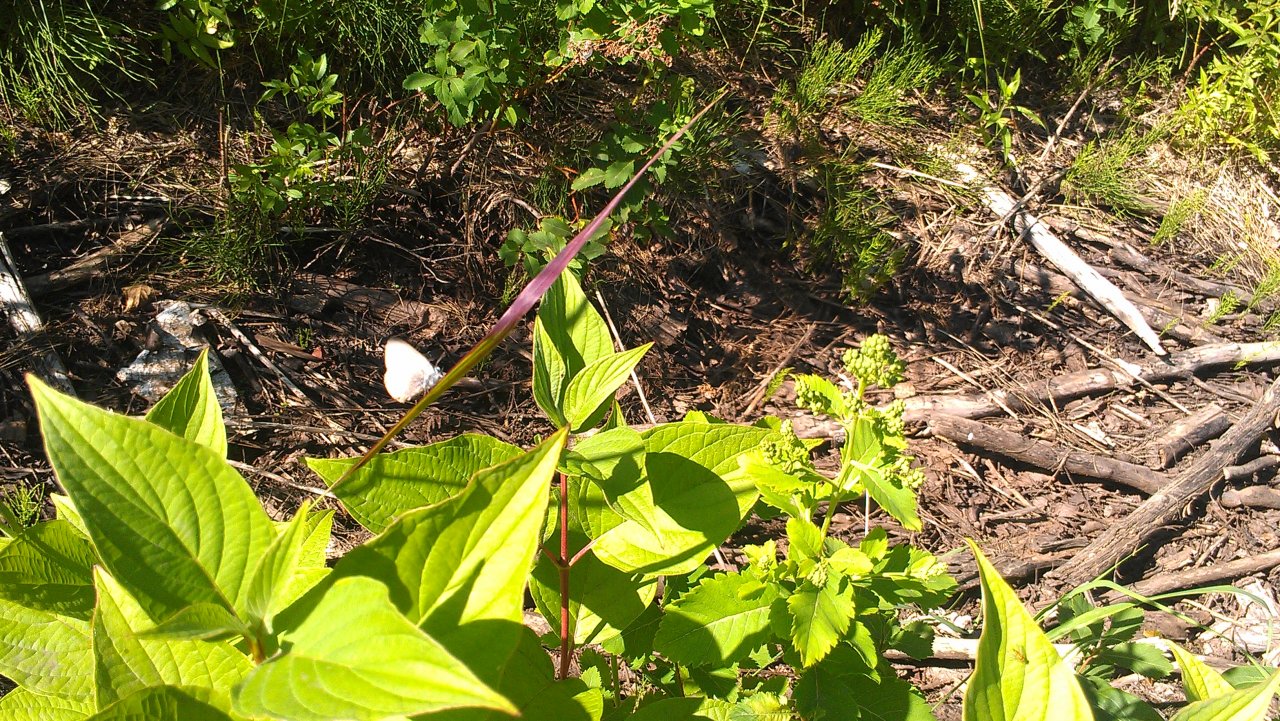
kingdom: Animalia
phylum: Arthropoda
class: Insecta
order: Lepidoptera
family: Lycaenidae
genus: Glaucopsyche
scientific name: Glaucopsyche lygdamus
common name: Silvery Blue
